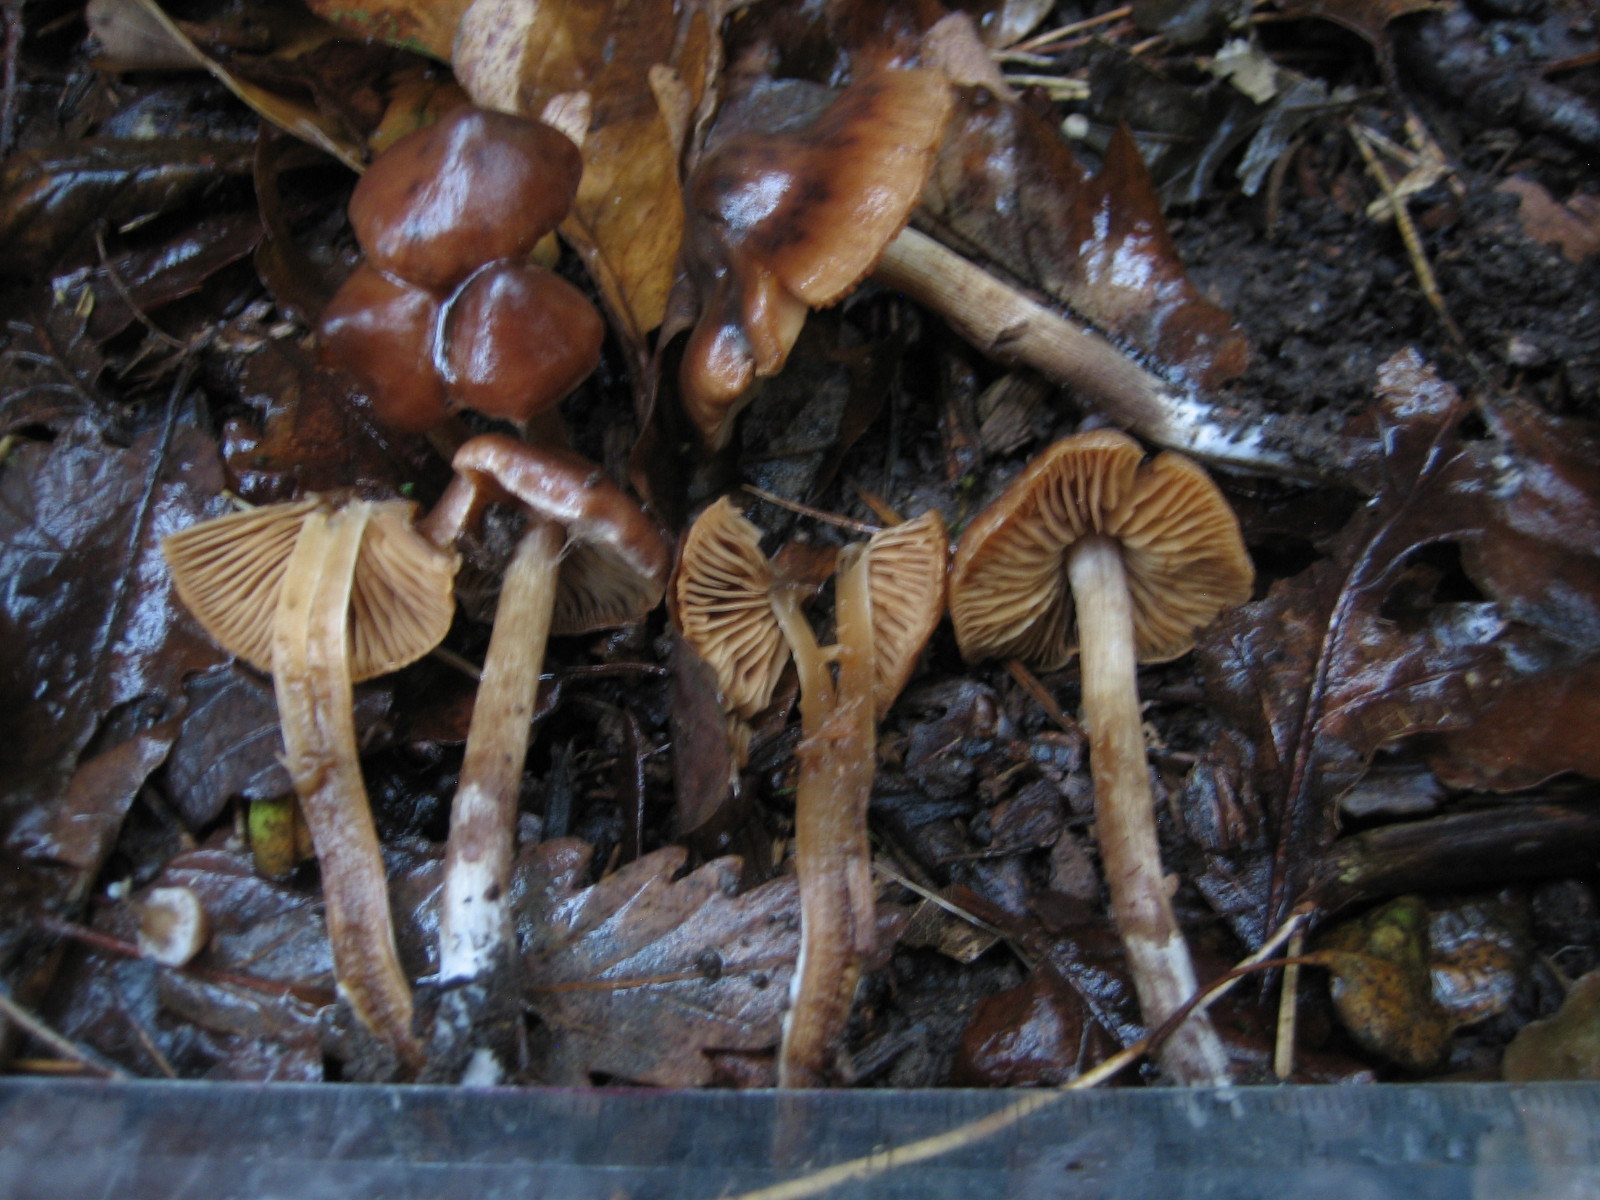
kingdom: Fungi
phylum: Basidiomycota
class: Agaricomycetes
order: Agaricales
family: Cortinariaceae
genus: Cortinarius
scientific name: Cortinarius incisior
